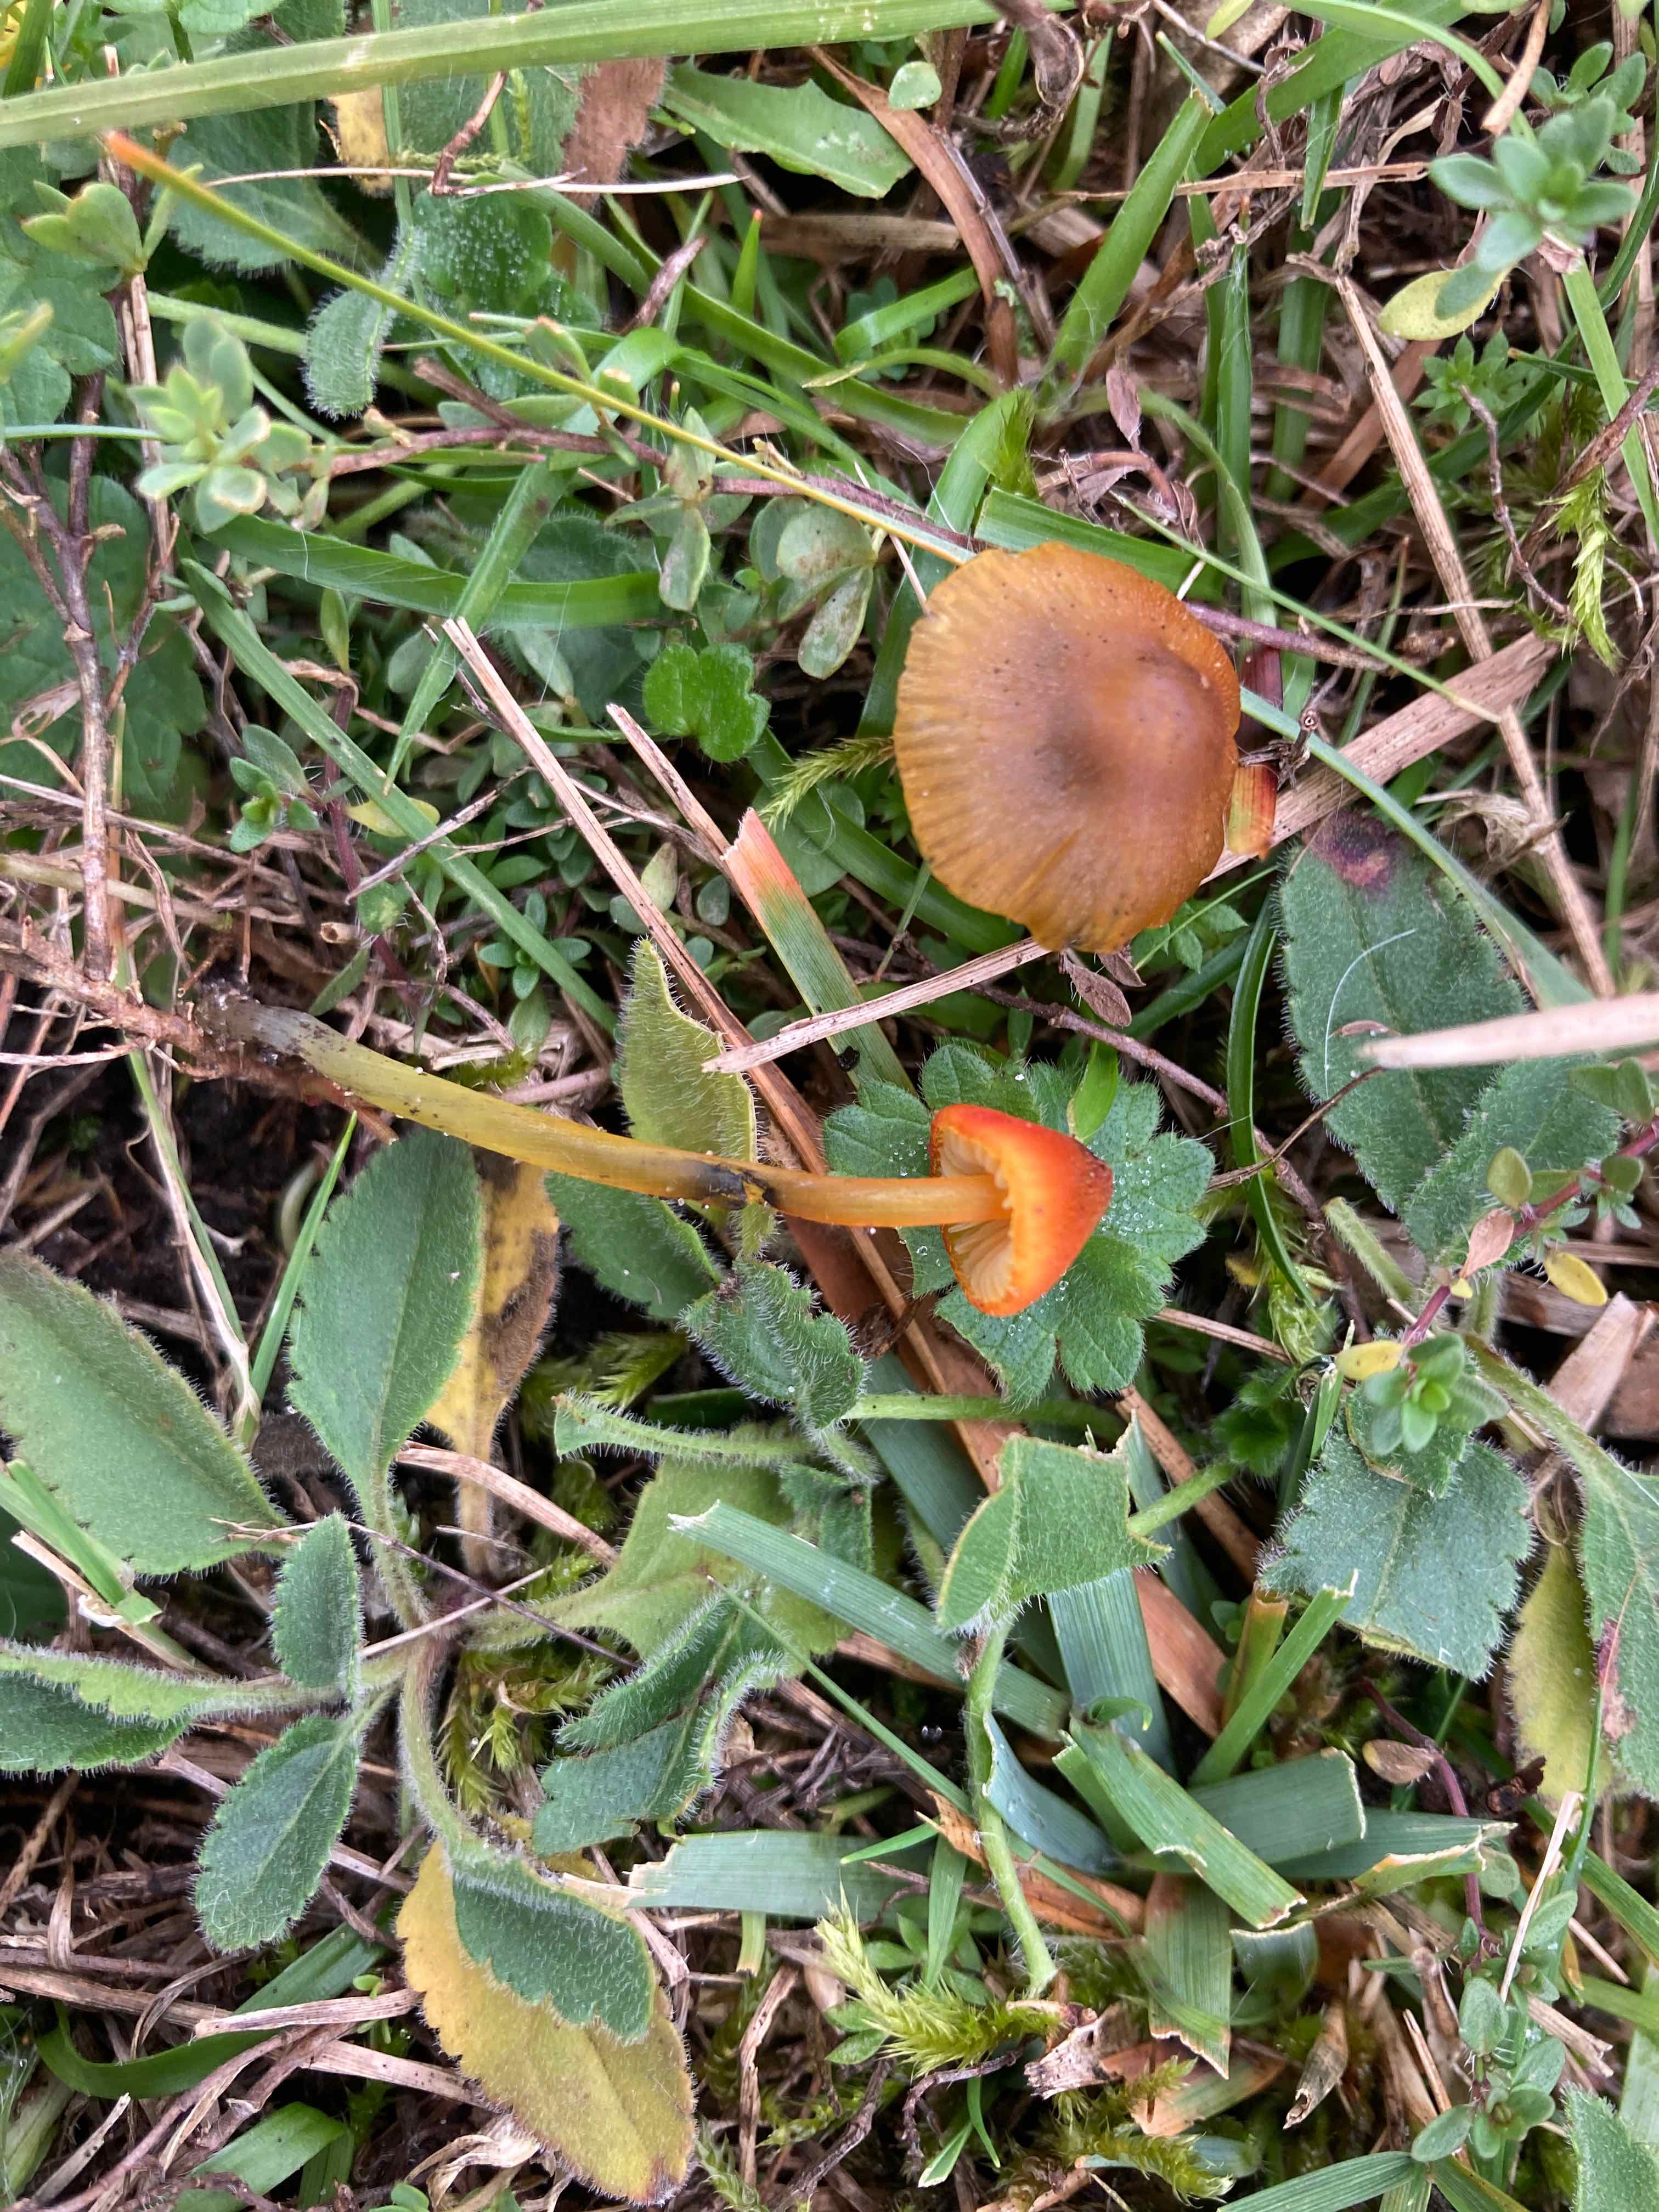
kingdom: Fungi
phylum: Basidiomycota
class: Agaricomycetes
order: Agaricales
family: Hygrophoraceae
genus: Hygrocybe
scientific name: Hygrocybe conica
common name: kegle-vokshat
